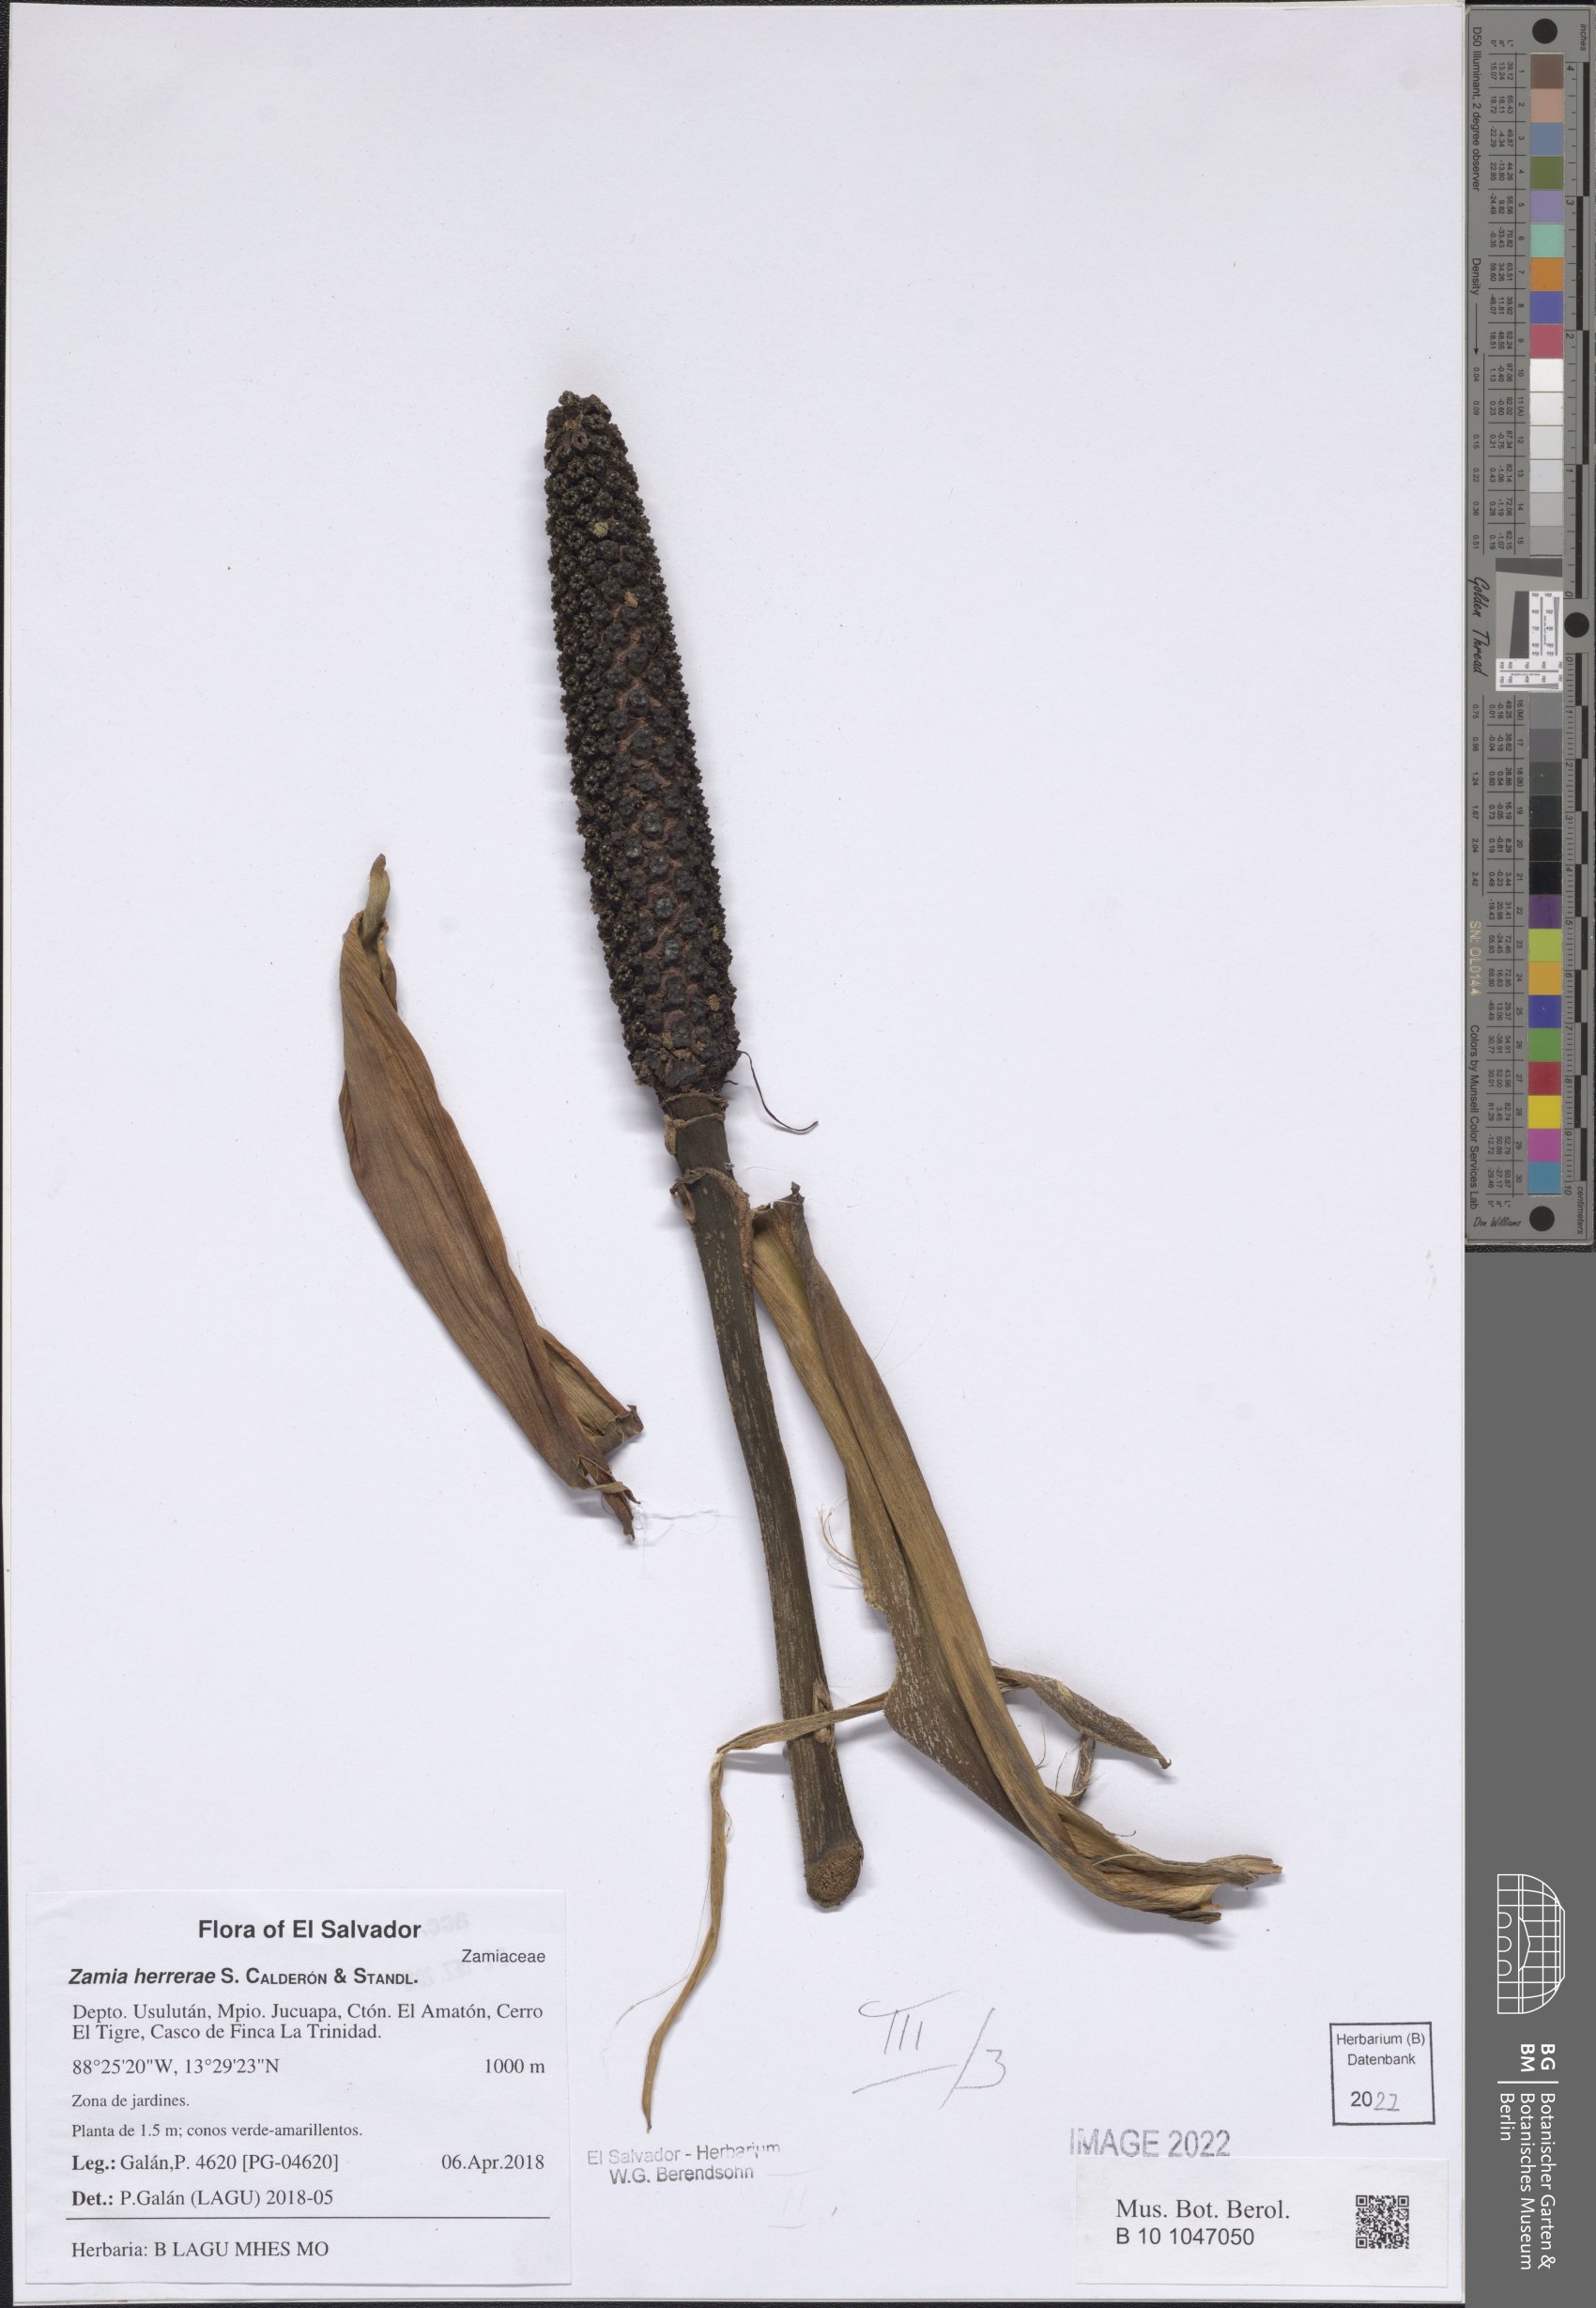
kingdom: Plantae
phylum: Tracheophyta
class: Cycadopsida
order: Cycadales
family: Zamiaceae
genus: Zamia
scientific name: Zamia herrerae
